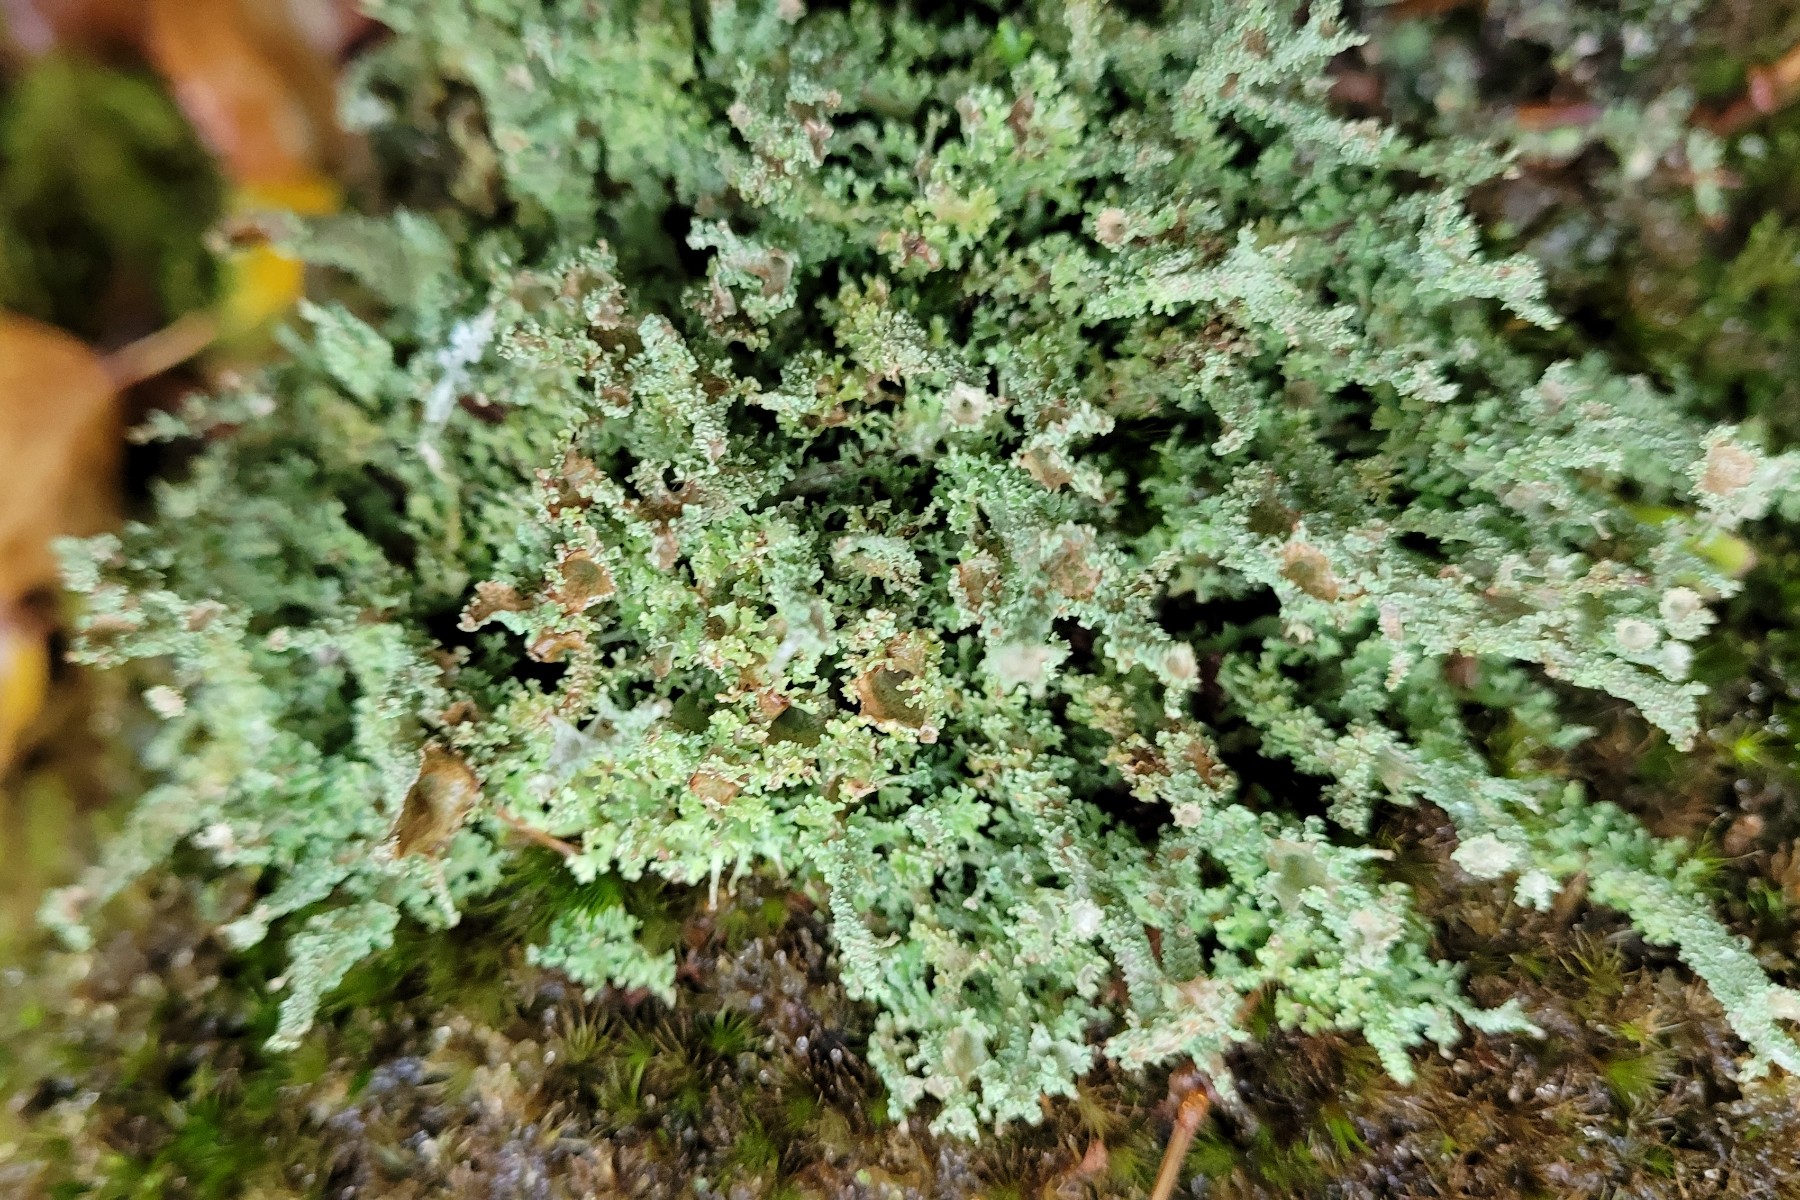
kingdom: Fungi
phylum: Ascomycota
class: Lecanoromycetes
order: Lecanorales
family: Cladoniaceae
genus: Cladonia
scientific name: Cladonia squamosa
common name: skælklædt bægerlav
